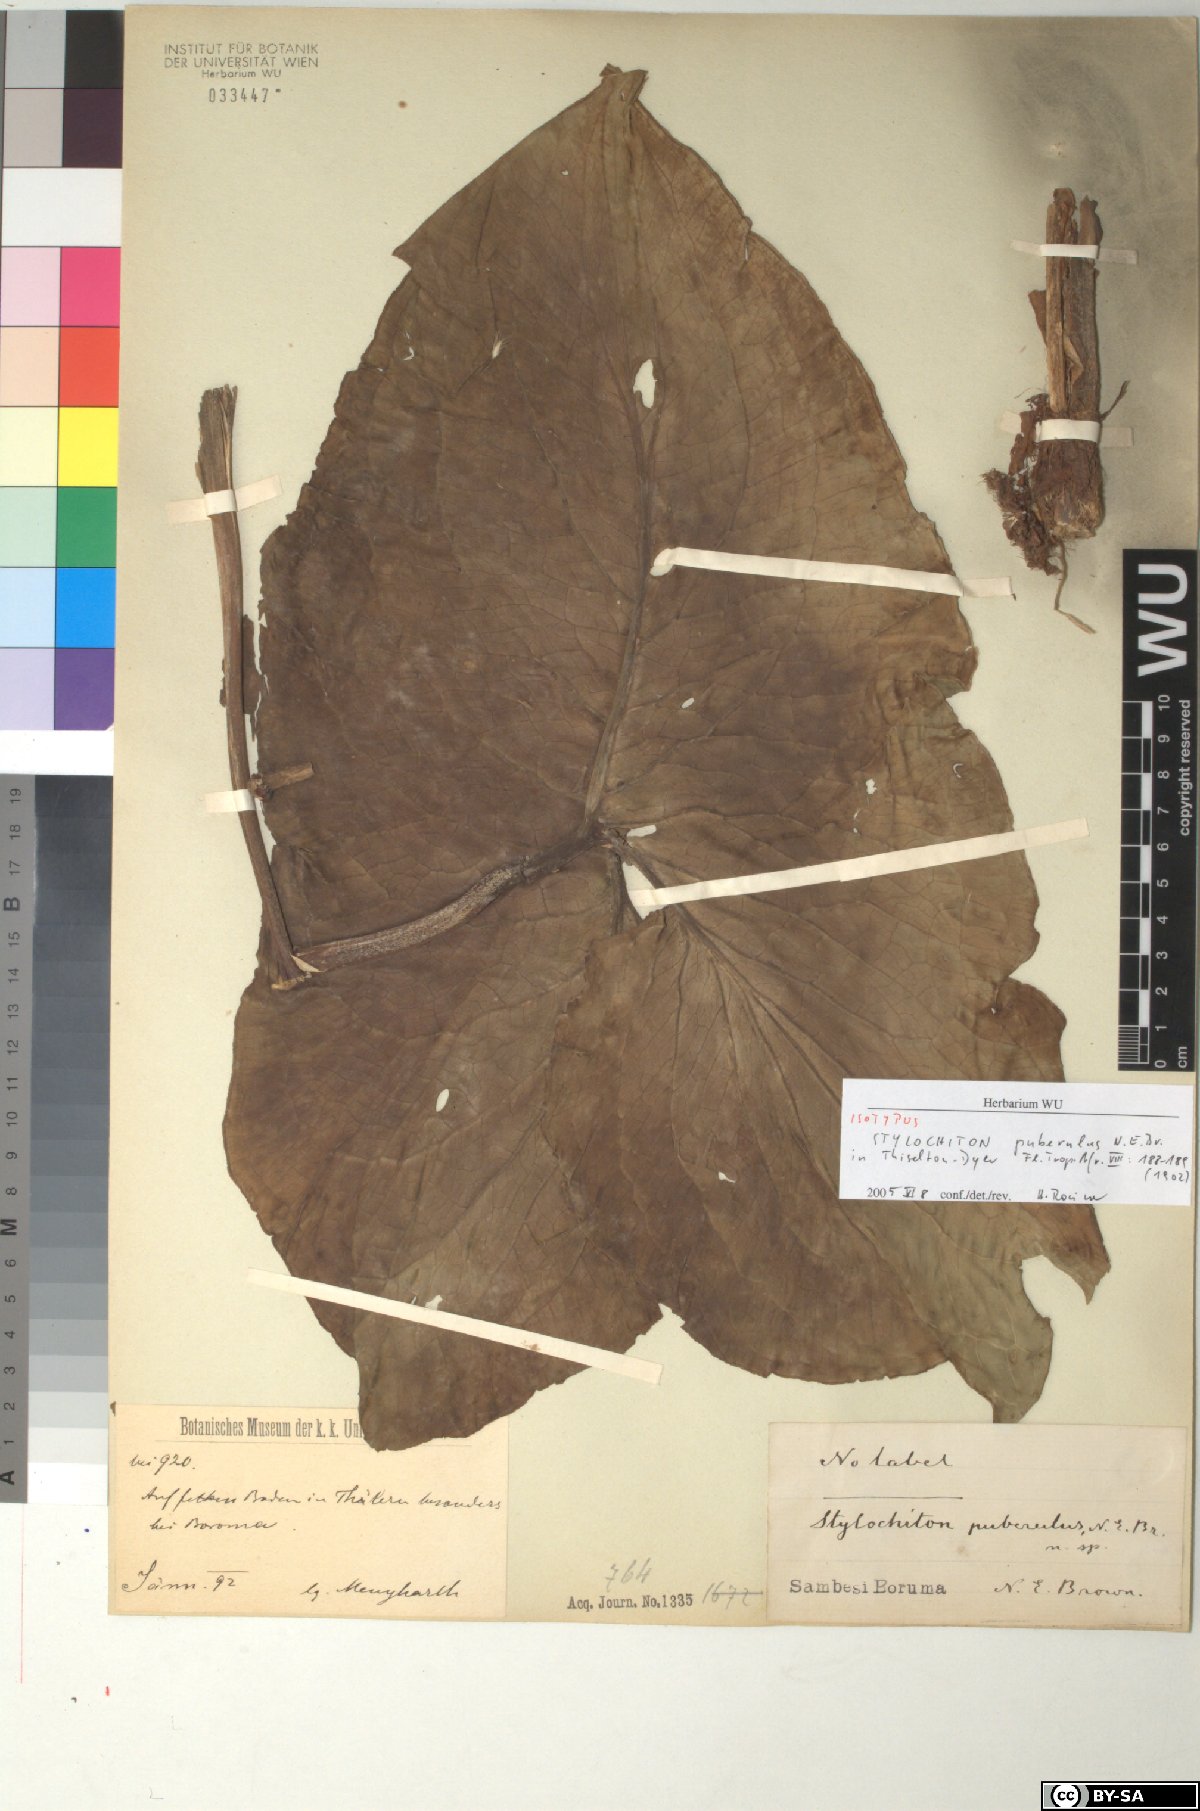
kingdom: Plantae
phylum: Tracheophyta
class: Liliopsida
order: Alismatales
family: Araceae
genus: Stylochaeton
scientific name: Stylochaeton puberulum
